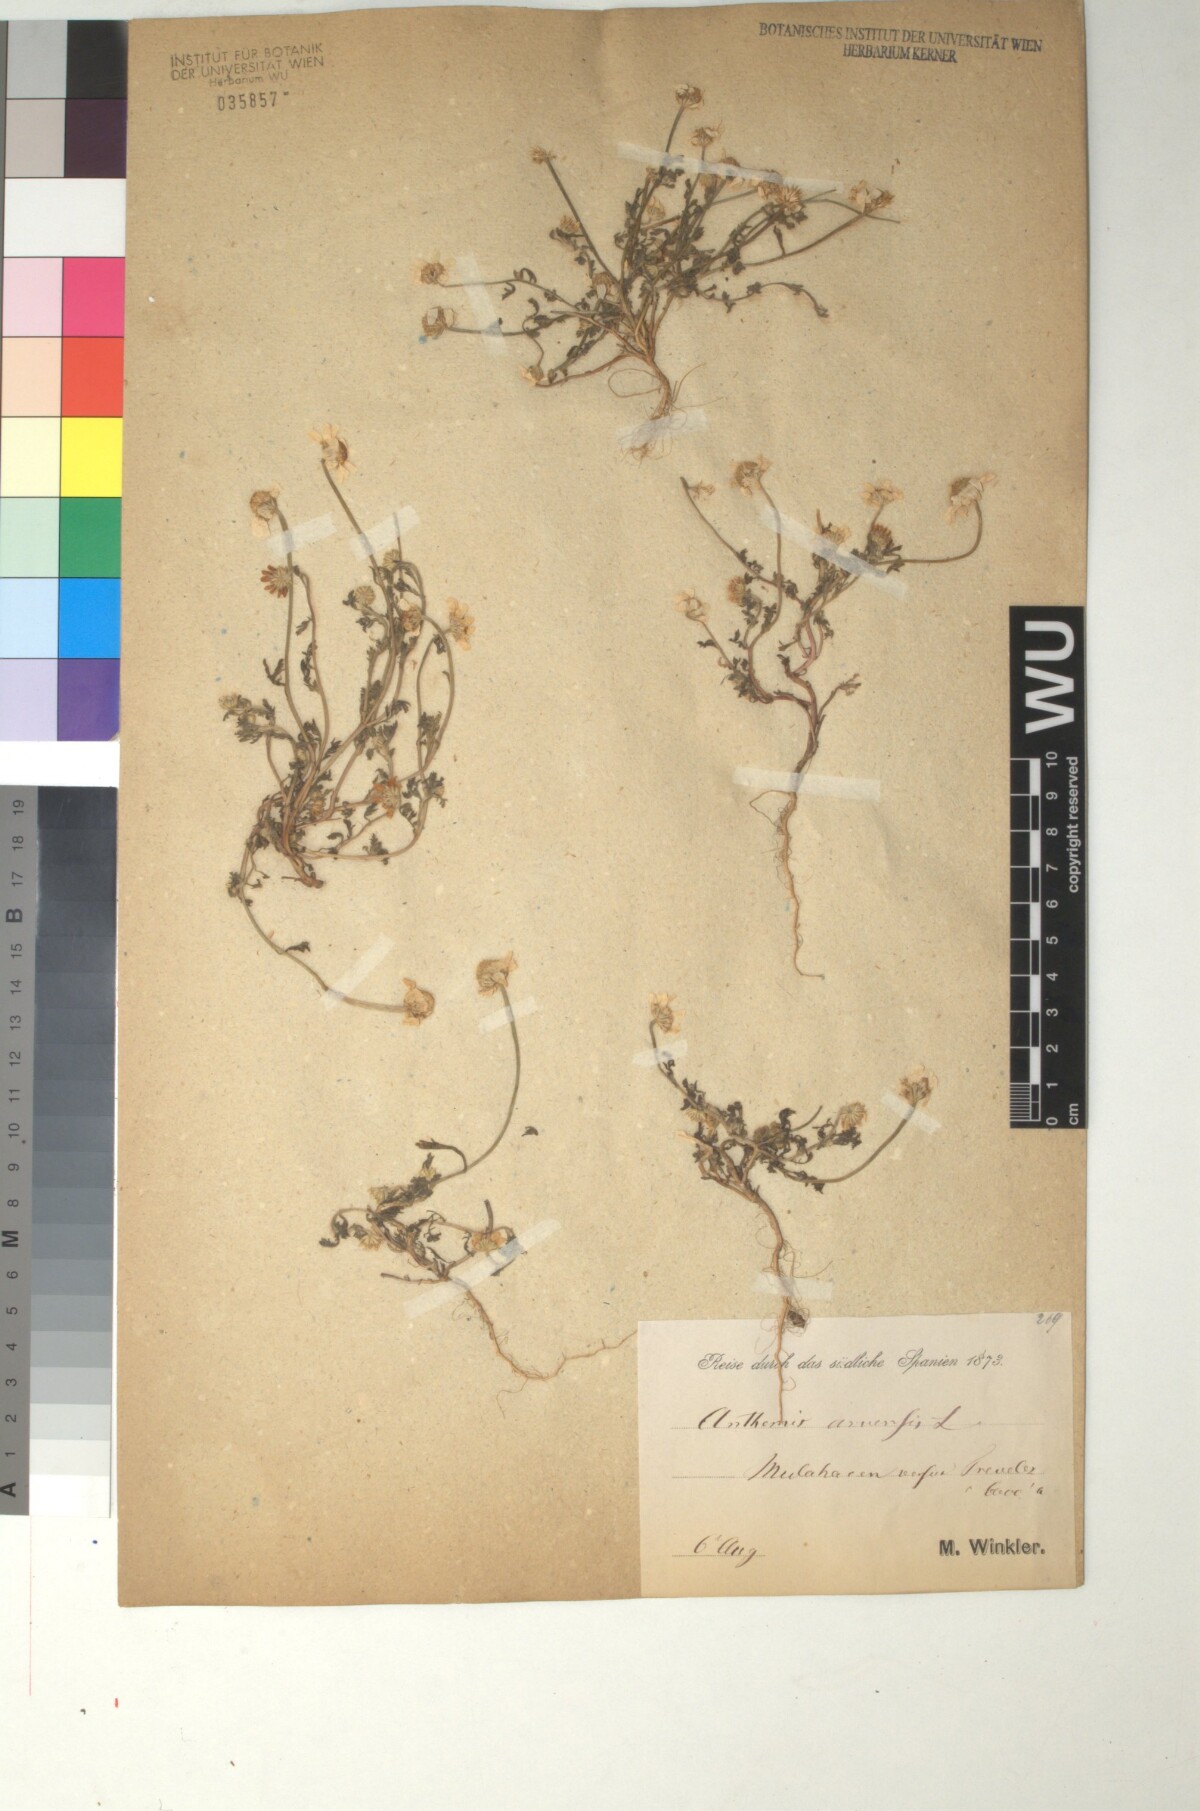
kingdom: Plantae
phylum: Tracheophyta
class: Magnoliopsida
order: Asterales
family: Asteraceae
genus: Anthemis
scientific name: Anthemis arvensis
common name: Corn chamomile
